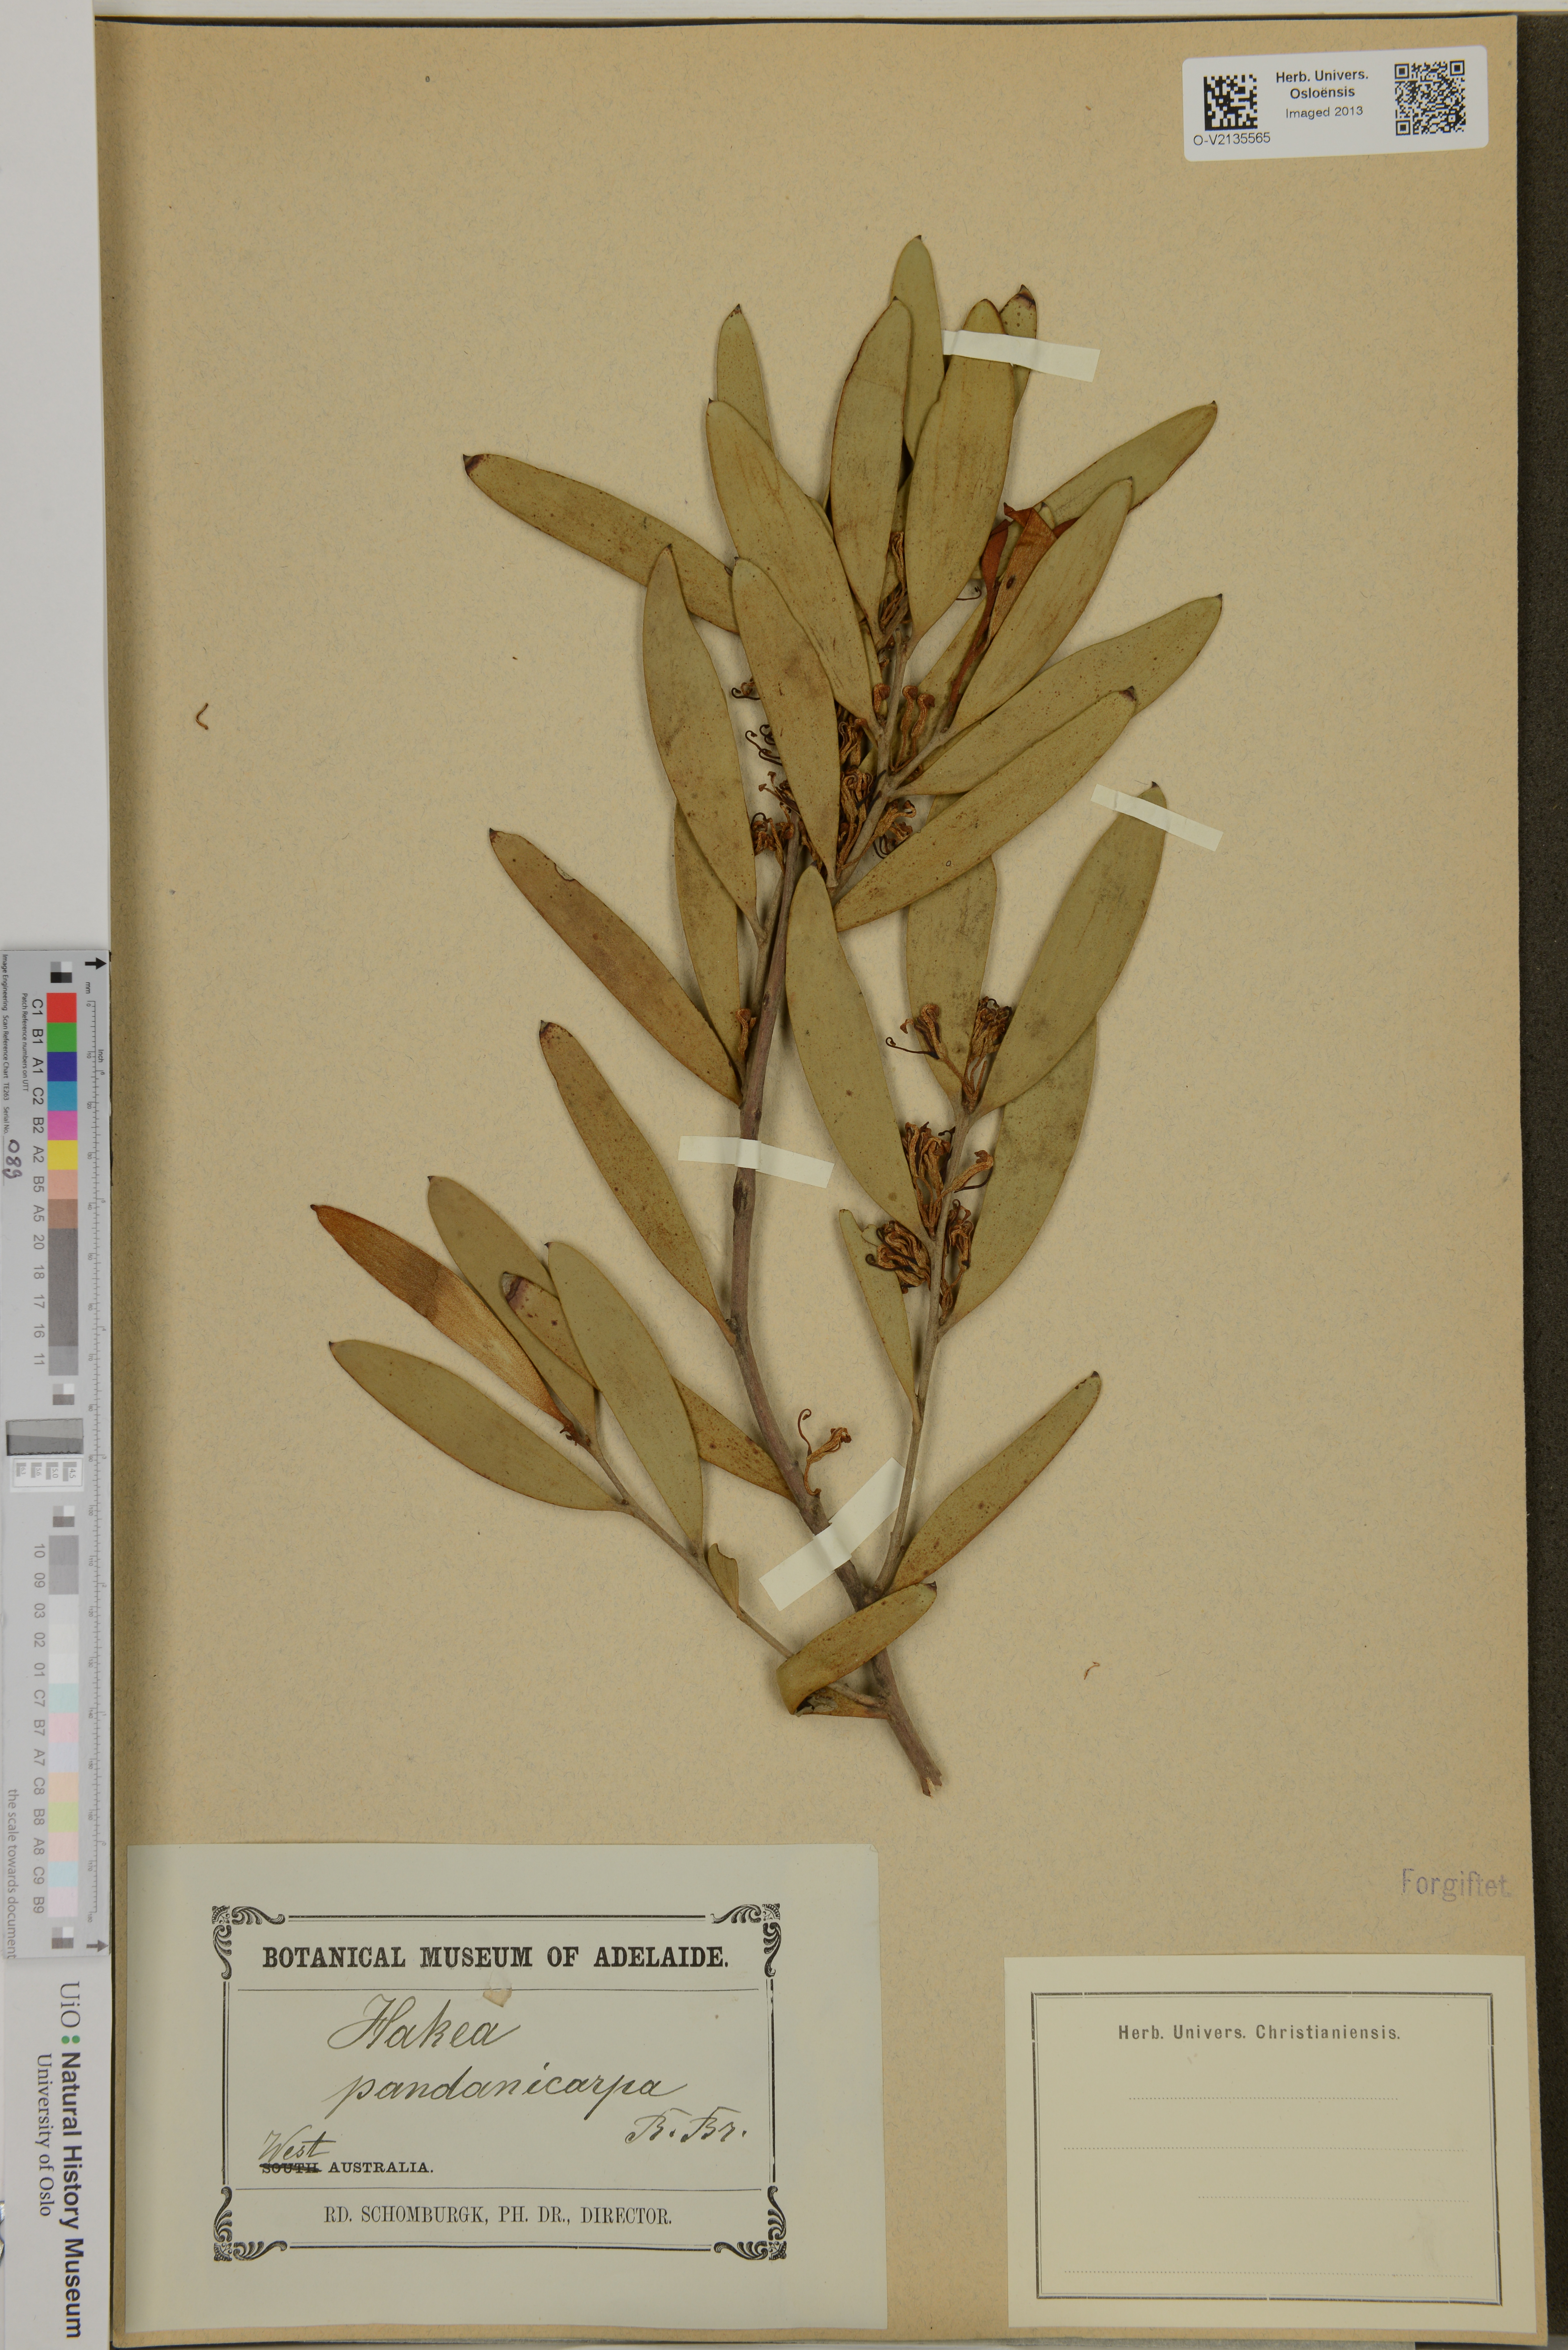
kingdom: Plantae
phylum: Tracheophyta
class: Magnoliopsida
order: Proteales
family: Proteaceae
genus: Hakea
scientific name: Hakea pandanicarpa
